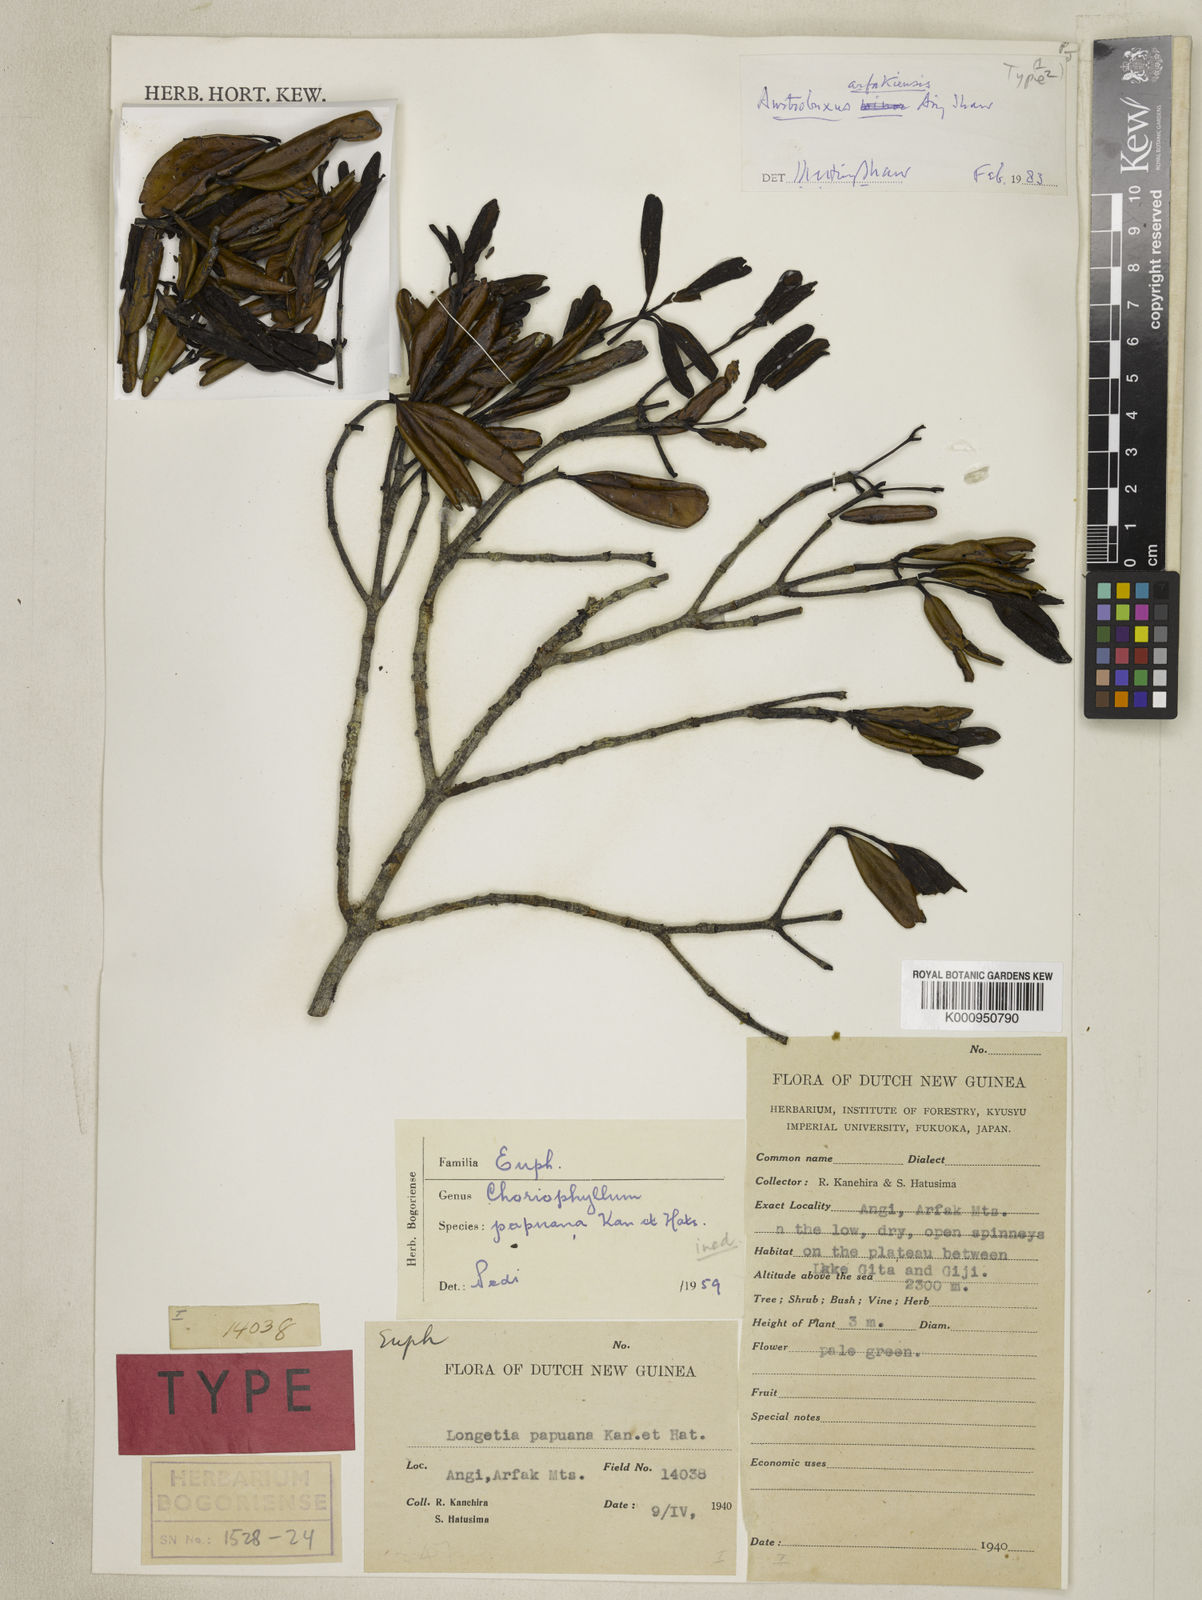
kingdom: Plantae
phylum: Tracheophyta
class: Magnoliopsida
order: Malpighiales
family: Picrodendraceae
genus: Austrobuxus
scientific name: Austrobuxus
